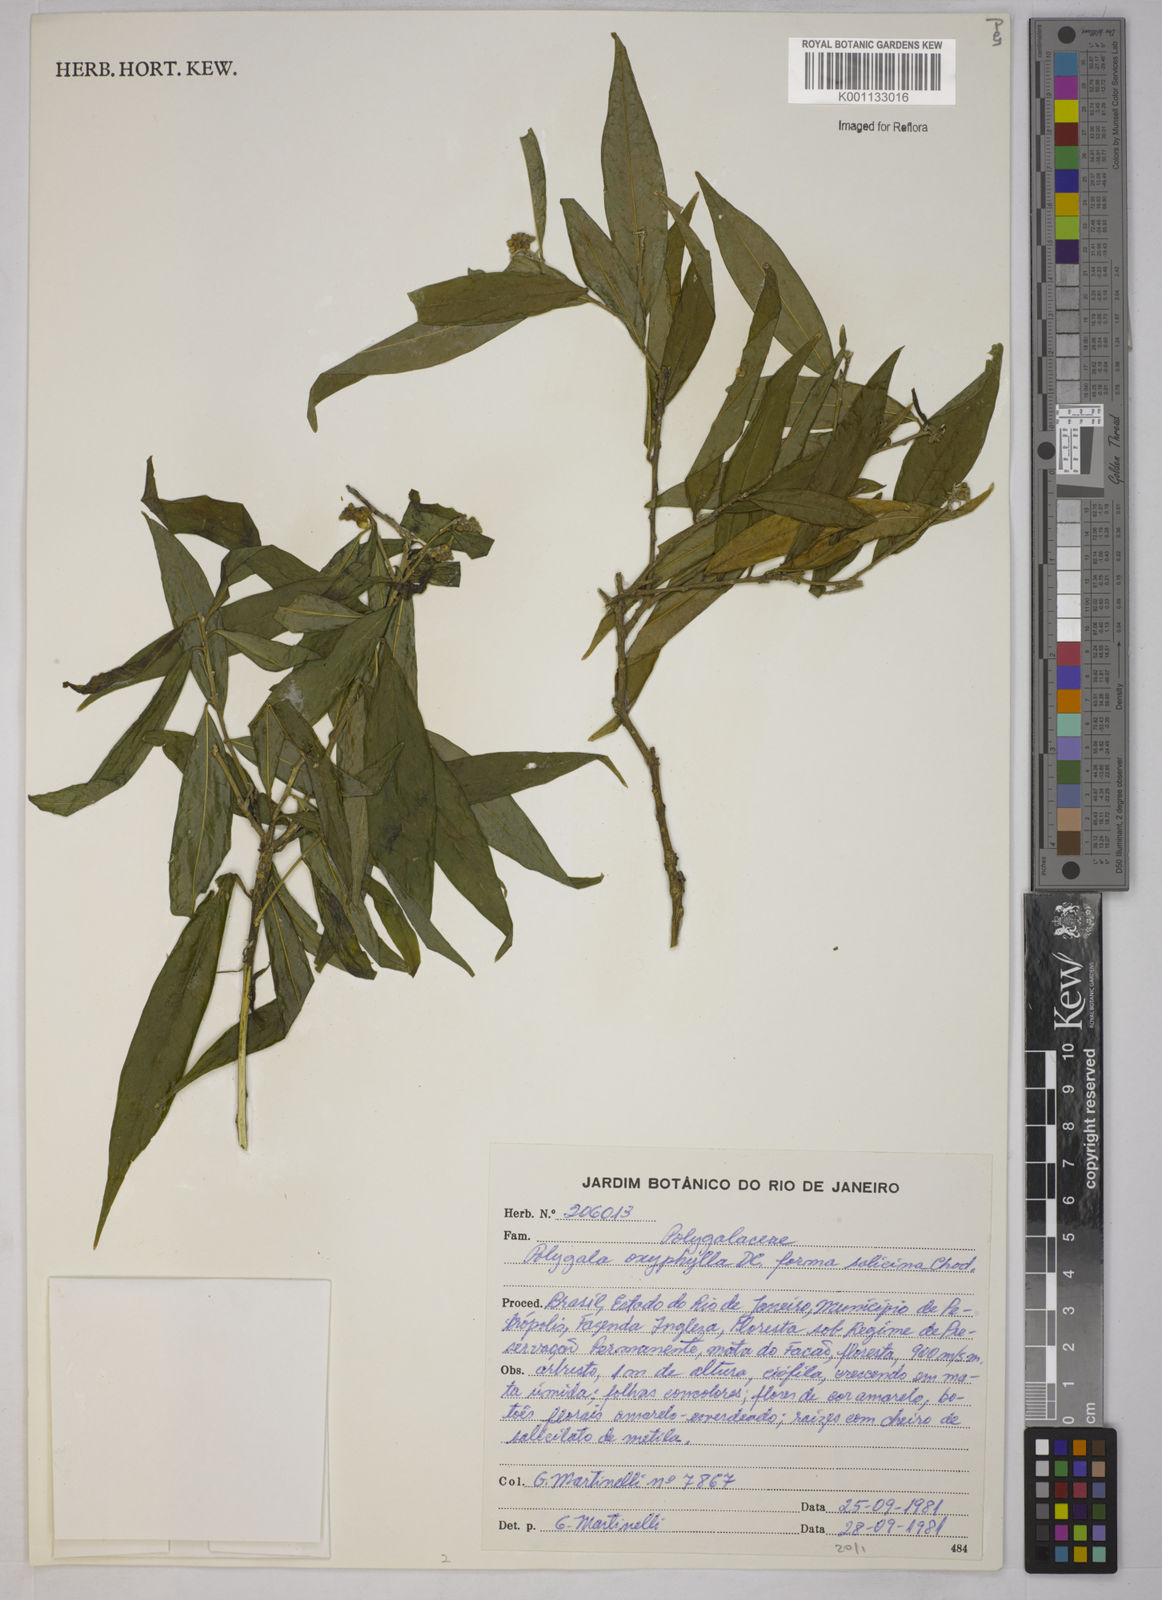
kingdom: Plantae
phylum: Tracheophyta
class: Magnoliopsida
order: Fabales
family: Polygalaceae
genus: Caamembeca
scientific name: Caamembeca oxyphylla
